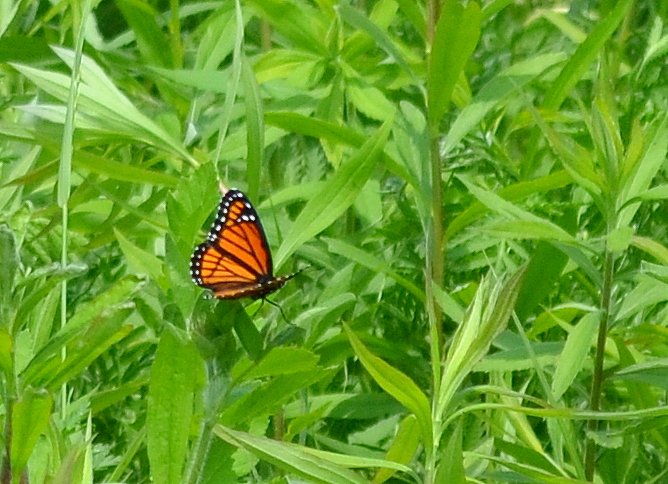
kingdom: Animalia
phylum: Arthropoda
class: Insecta
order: Lepidoptera
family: Nymphalidae
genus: Limenitis
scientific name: Limenitis archippus
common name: Viceroy
